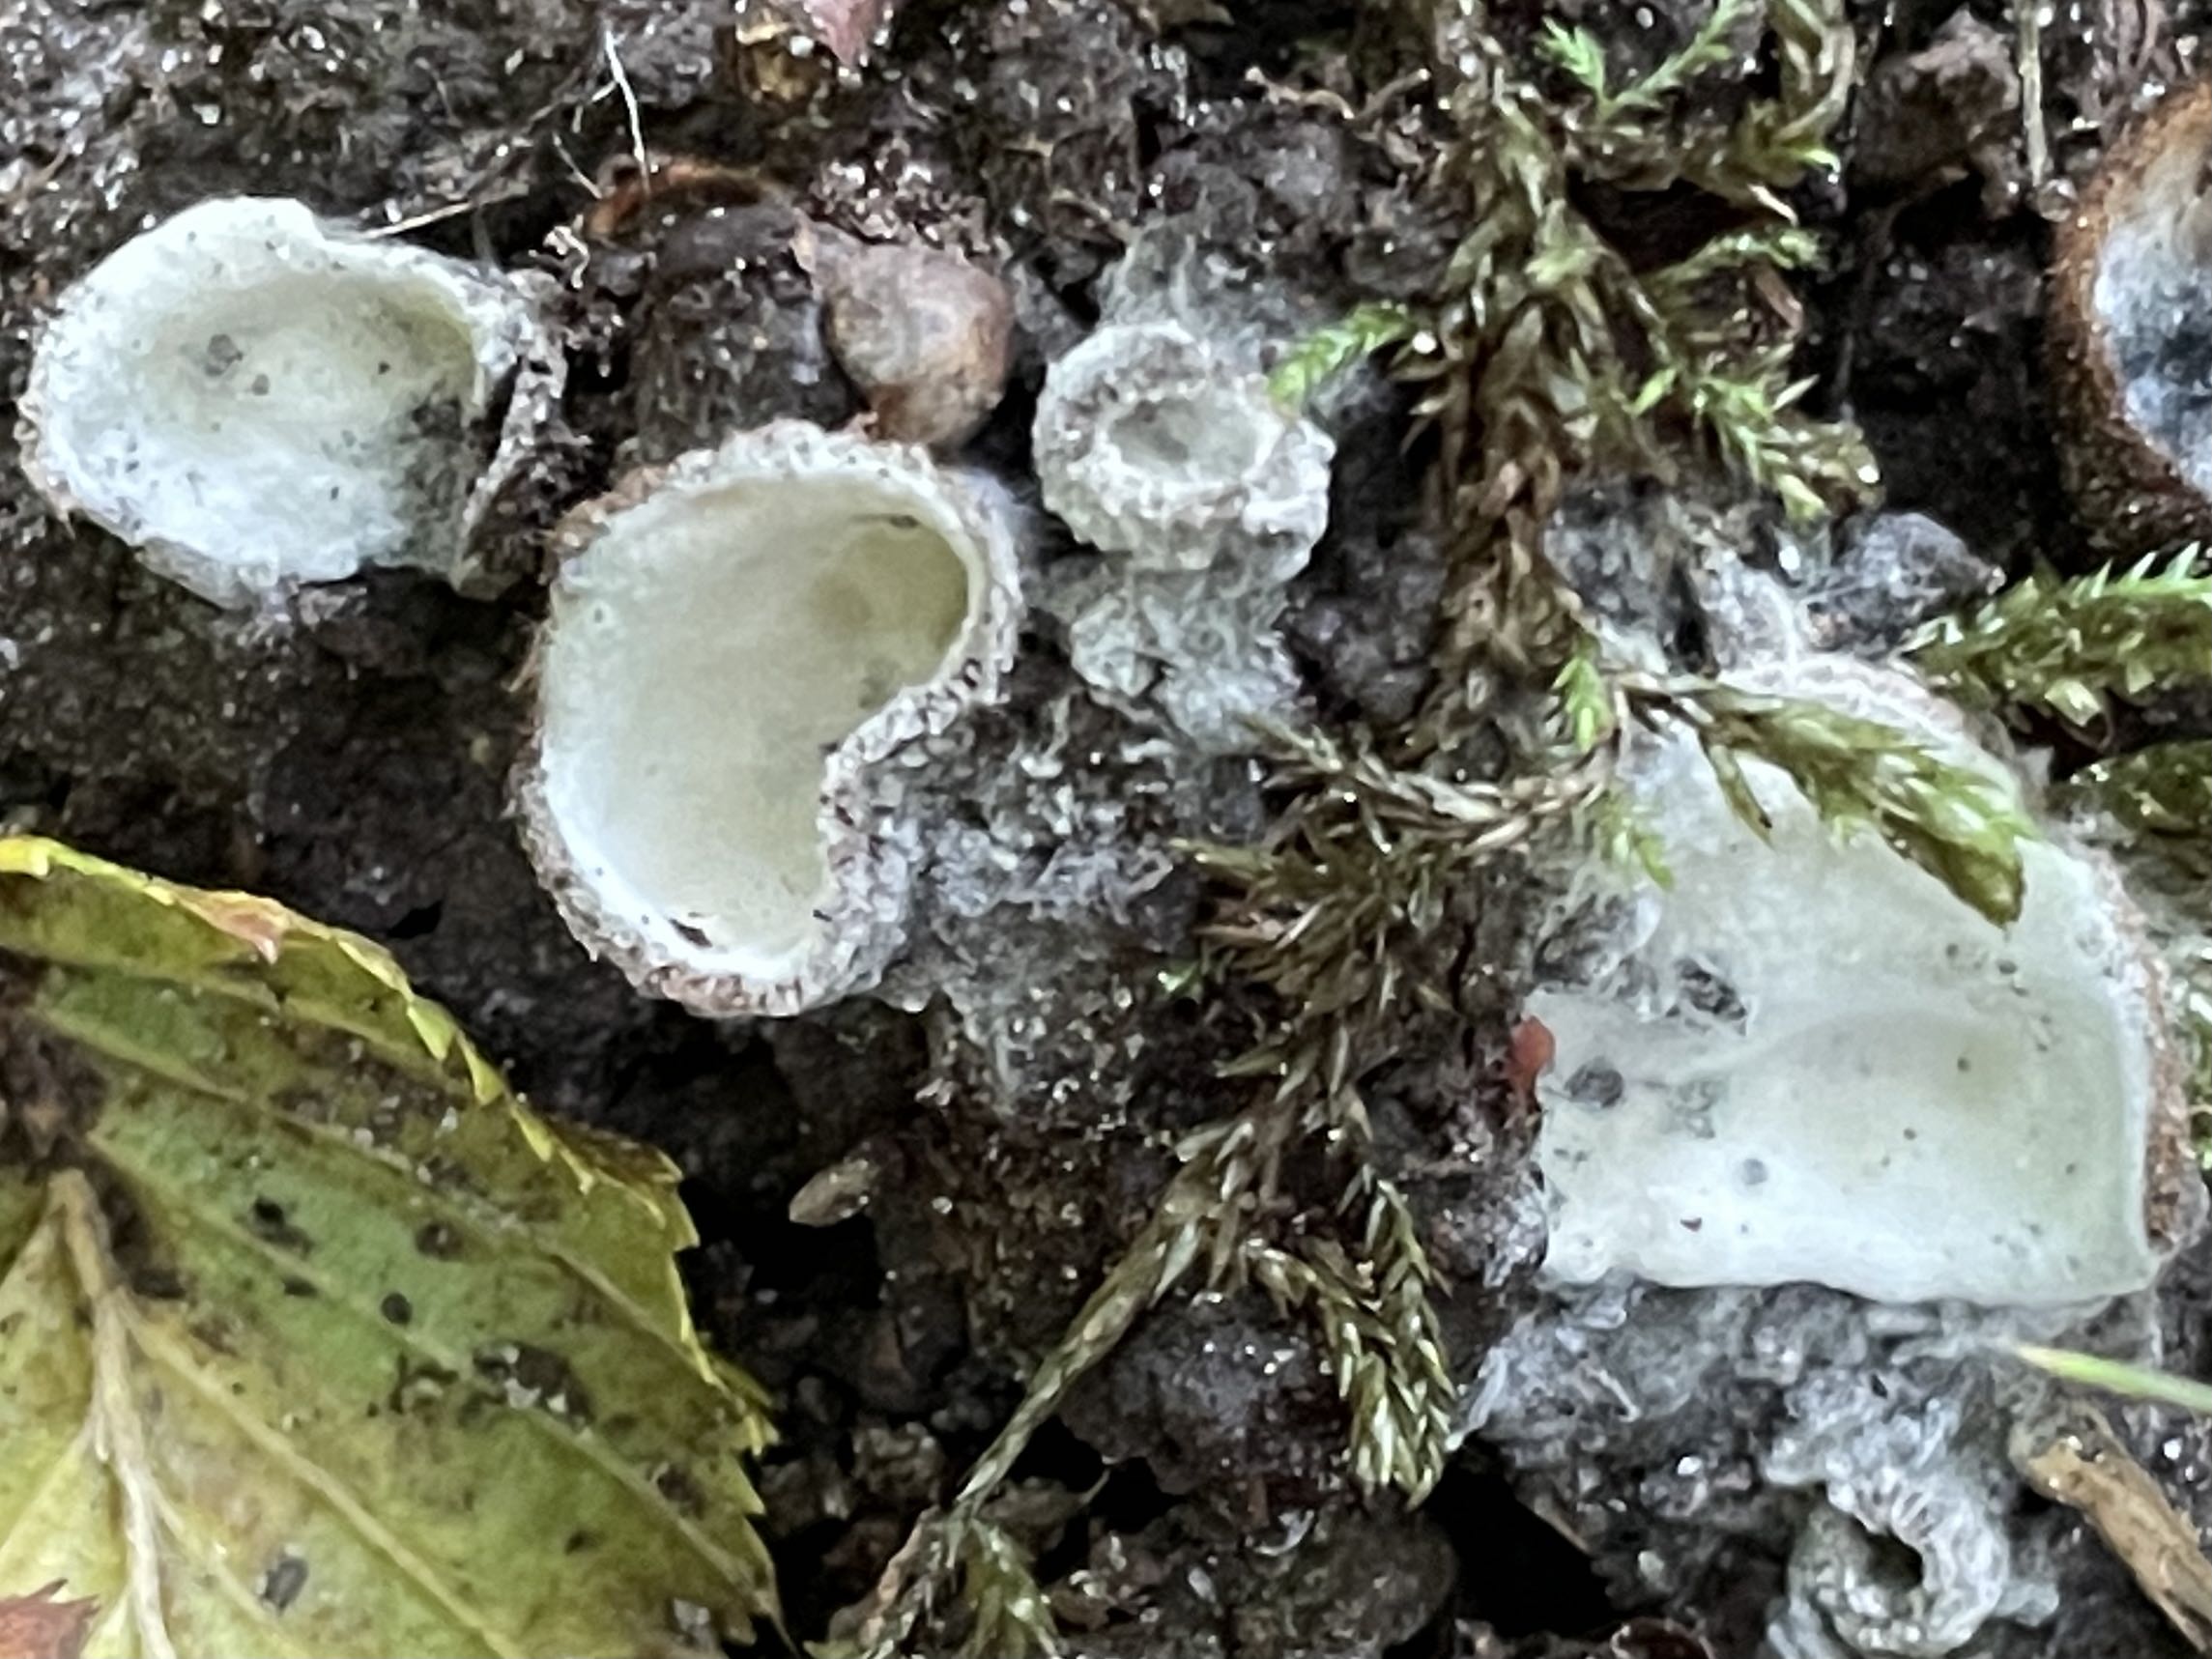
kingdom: Fungi
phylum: Ascomycota
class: Sordariomycetes
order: Hypocreales
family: Hypocreaceae
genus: Hypomyces
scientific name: Hypomyces stephanomatis
